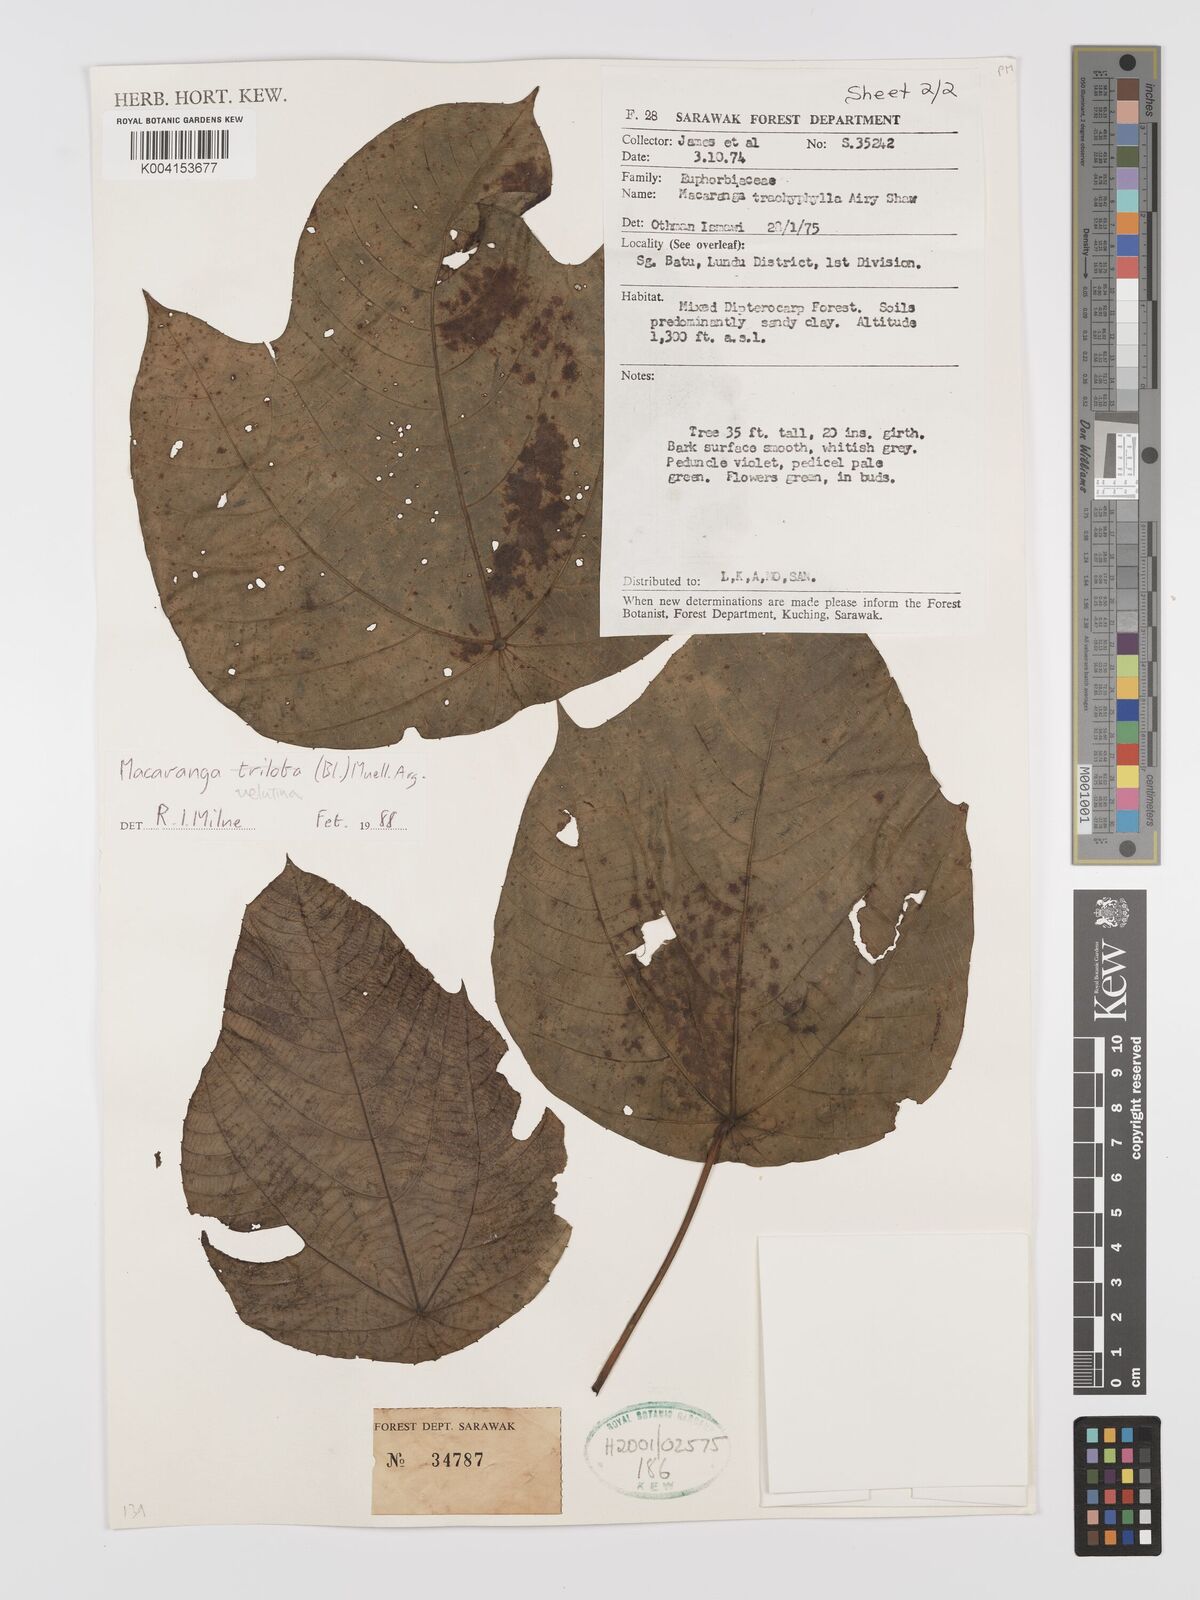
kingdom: Plantae
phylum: Tracheophyta
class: Magnoliopsida
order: Malpighiales
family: Euphorbiaceae
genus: Macaranga
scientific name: Macaranga triloba
